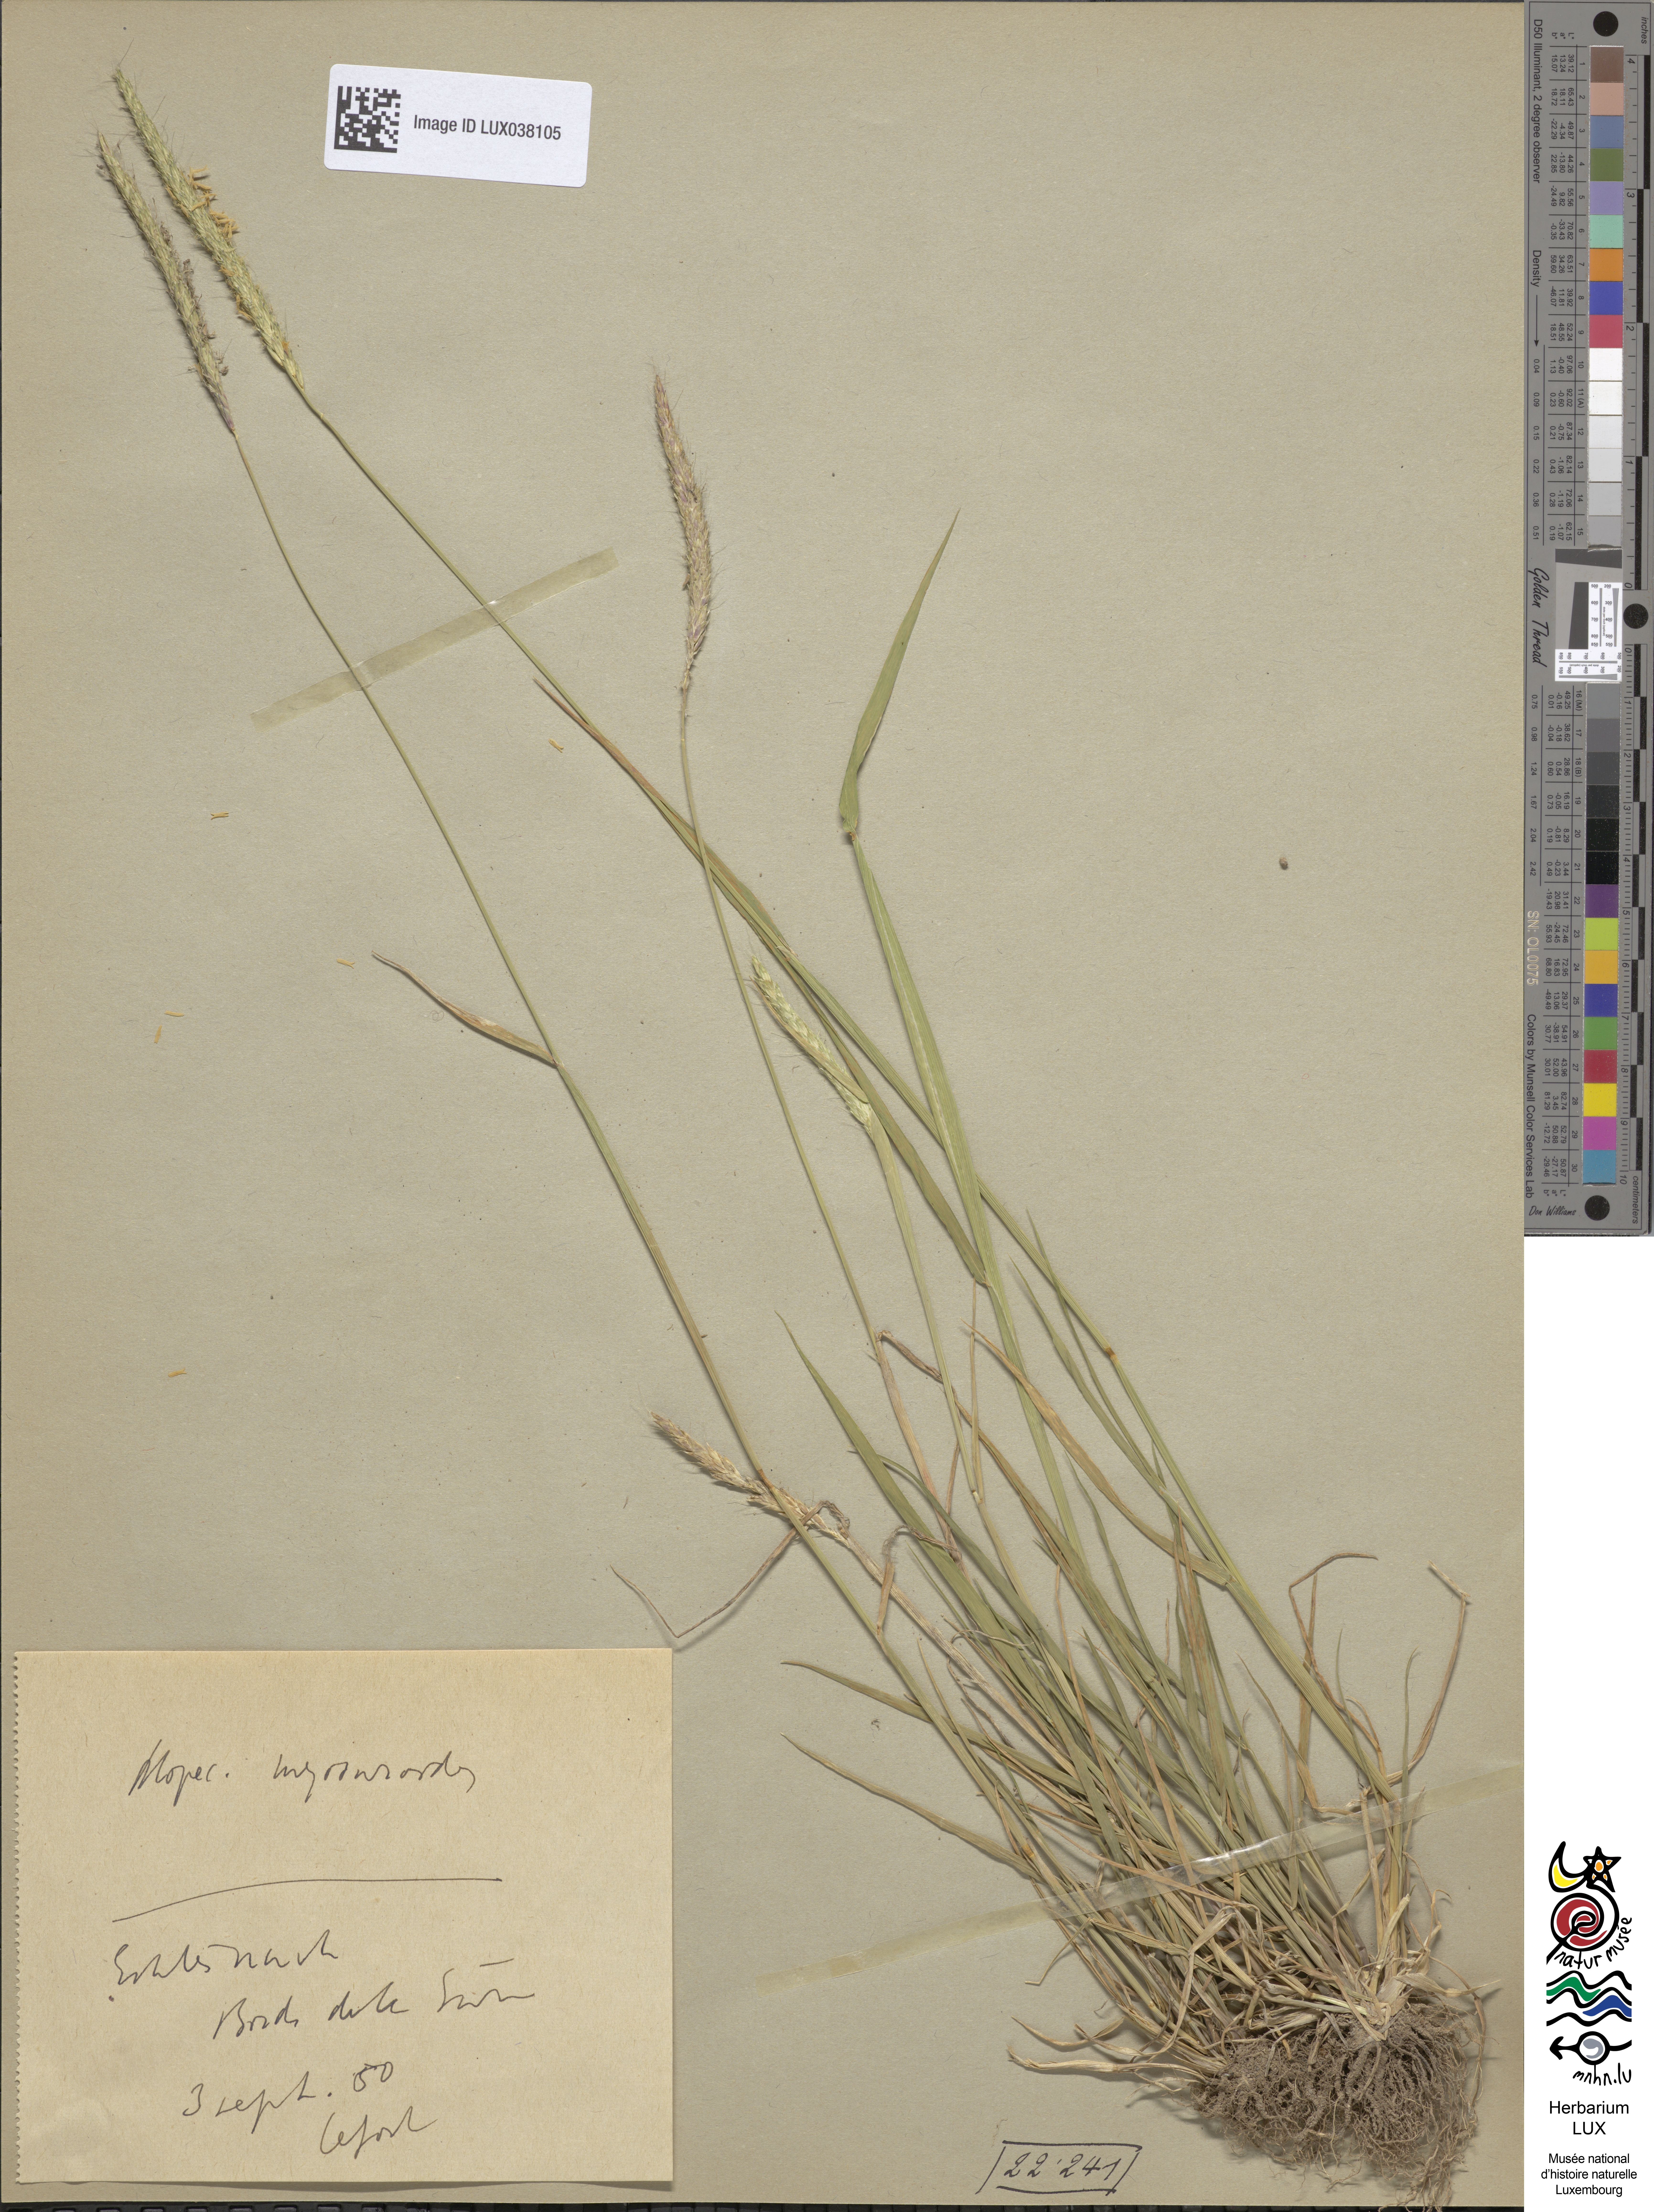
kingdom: Plantae
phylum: Tracheophyta
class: Liliopsida
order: Poales
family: Poaceae
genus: Alopecurus
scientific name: Alopecurus myosuroides
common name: Black-grass
